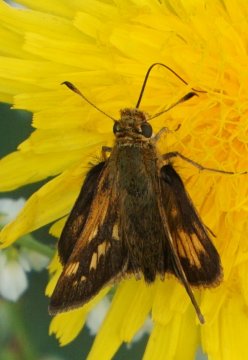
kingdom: Animalia
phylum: Arthropoda
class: Insecta
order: Lepidoptera
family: Hesperiidae
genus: Polites
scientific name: Polites coras
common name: Peck's Skipper
